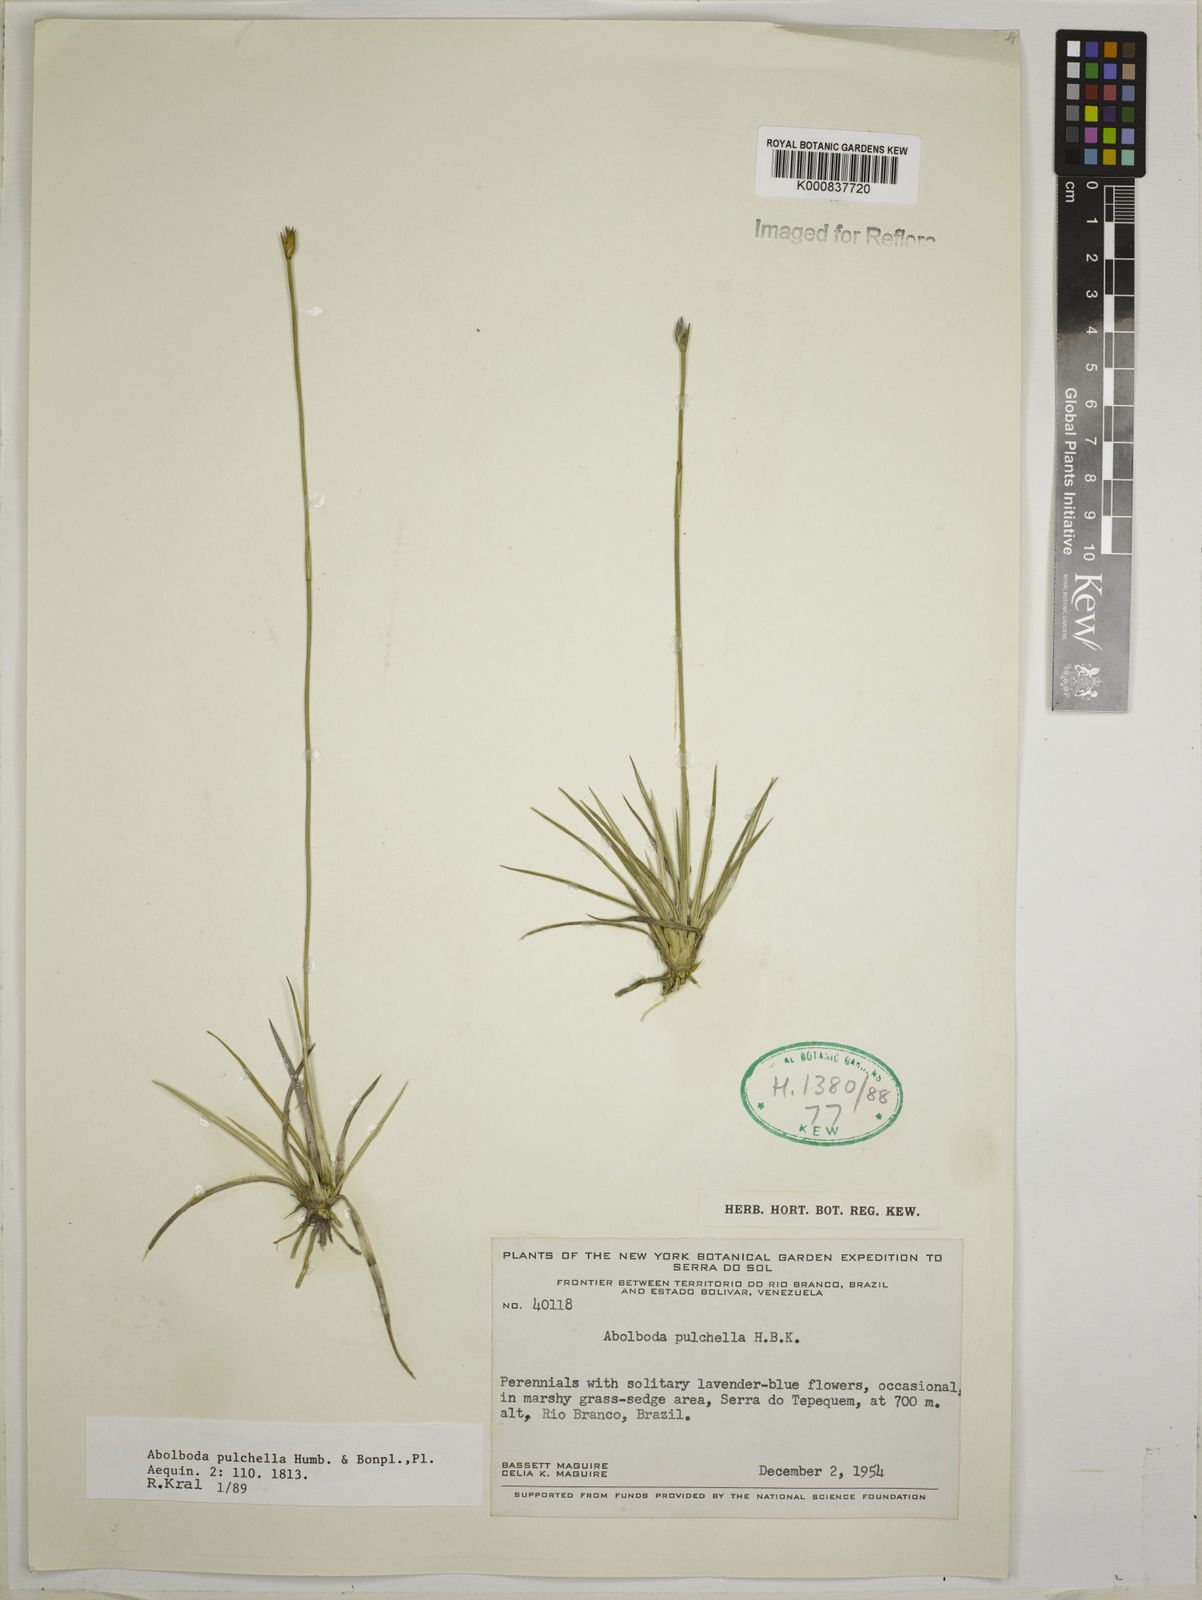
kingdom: Plantae
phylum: Tracheophyta
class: Liliopsida
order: Poales
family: Xyridaceae
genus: Abolboda
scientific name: Abolboda pulchella
